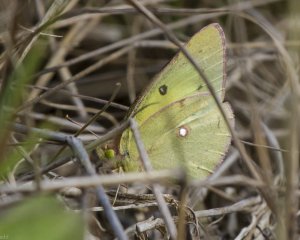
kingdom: Animalia
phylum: Arthropoda
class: Insecta
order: Lepidoptera
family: Pieridae
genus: Colias
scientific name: Colias philodice
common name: Clouded Sulphur
